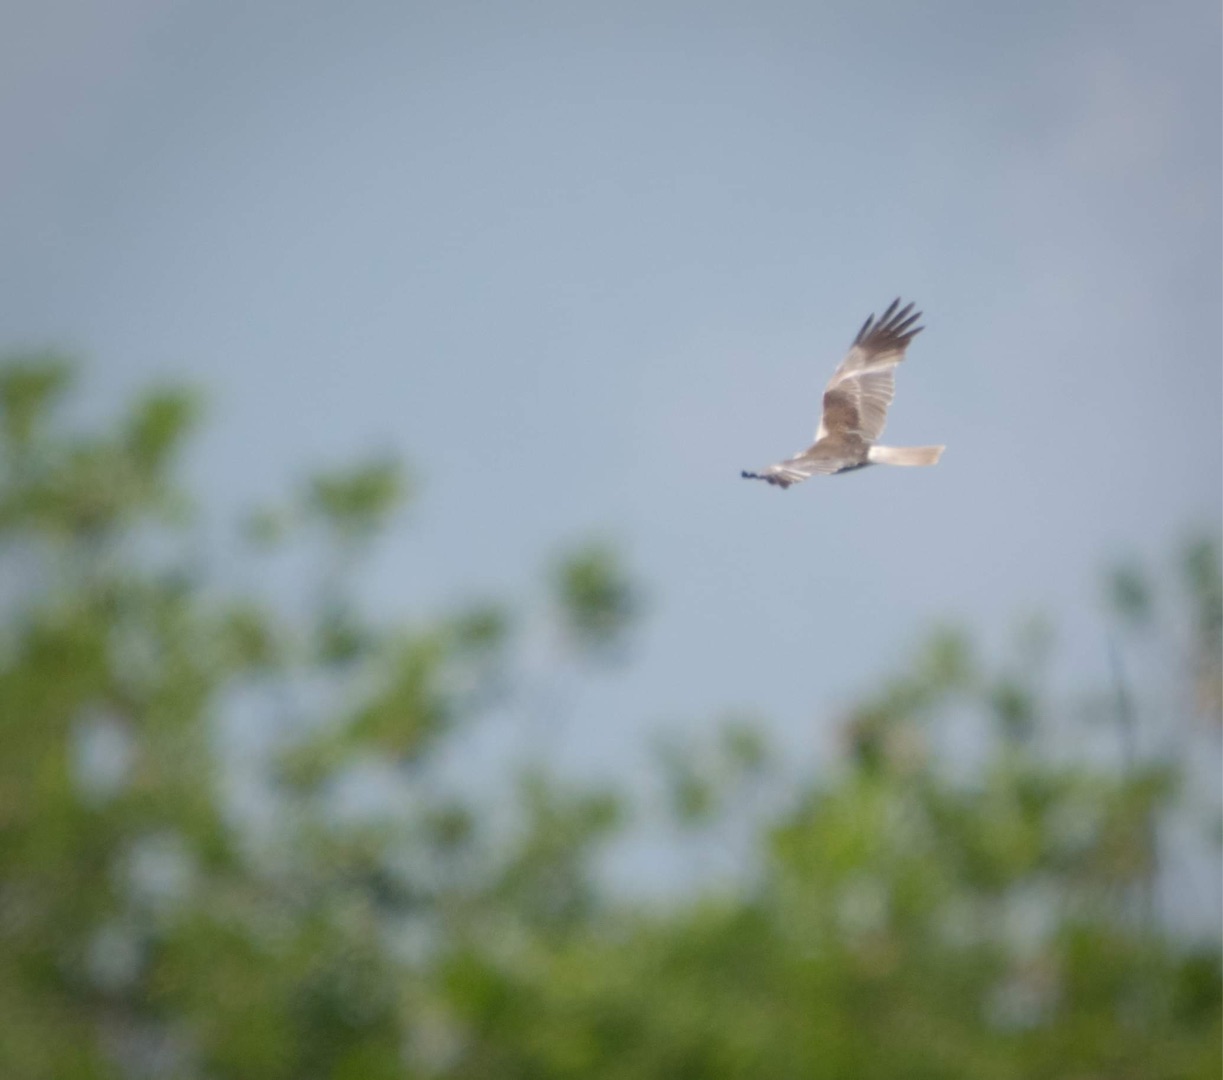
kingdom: Animalia
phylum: Chordata
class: Aves
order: Accipitriformes
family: Accipitridae
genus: Circus
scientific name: Circus aeruginosus
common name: Rørhøg
